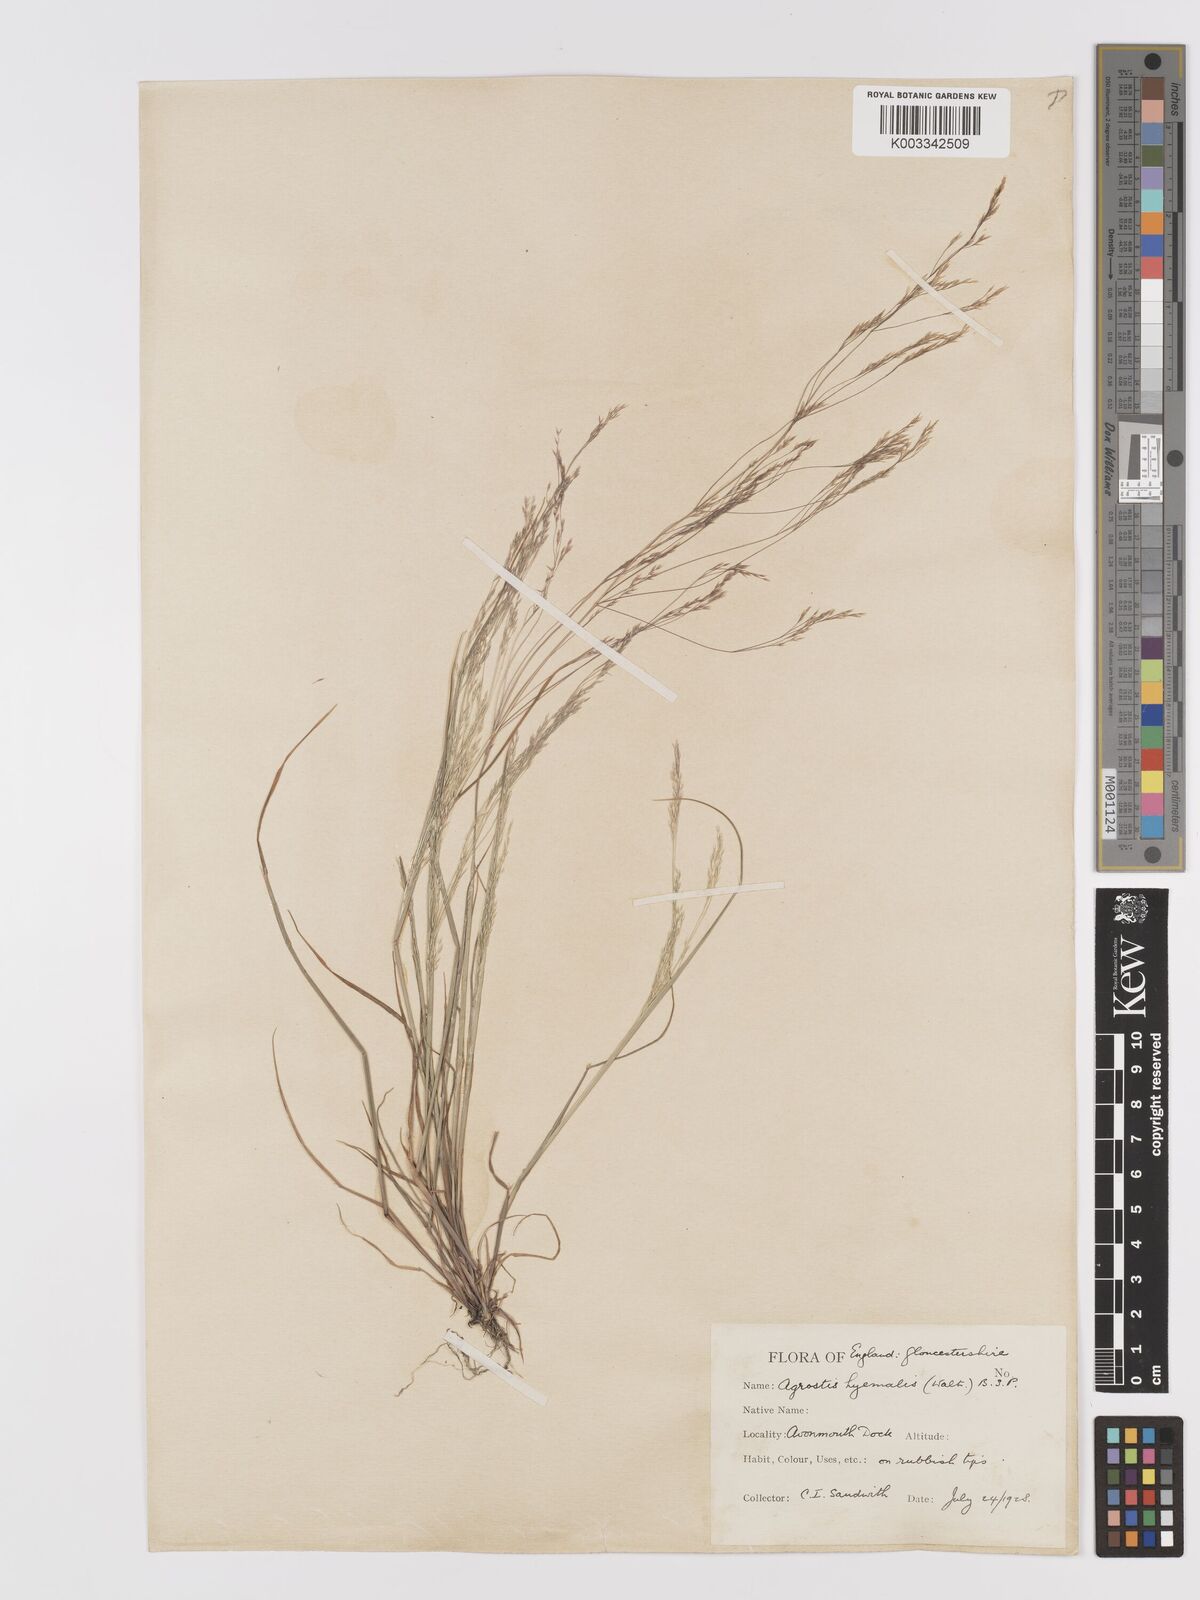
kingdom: Plantae
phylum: Tracheophyta
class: Liliopsida
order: Poales
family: Poaceae
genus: Agrostis
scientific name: Agrostis hyemalis
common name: Small bent
